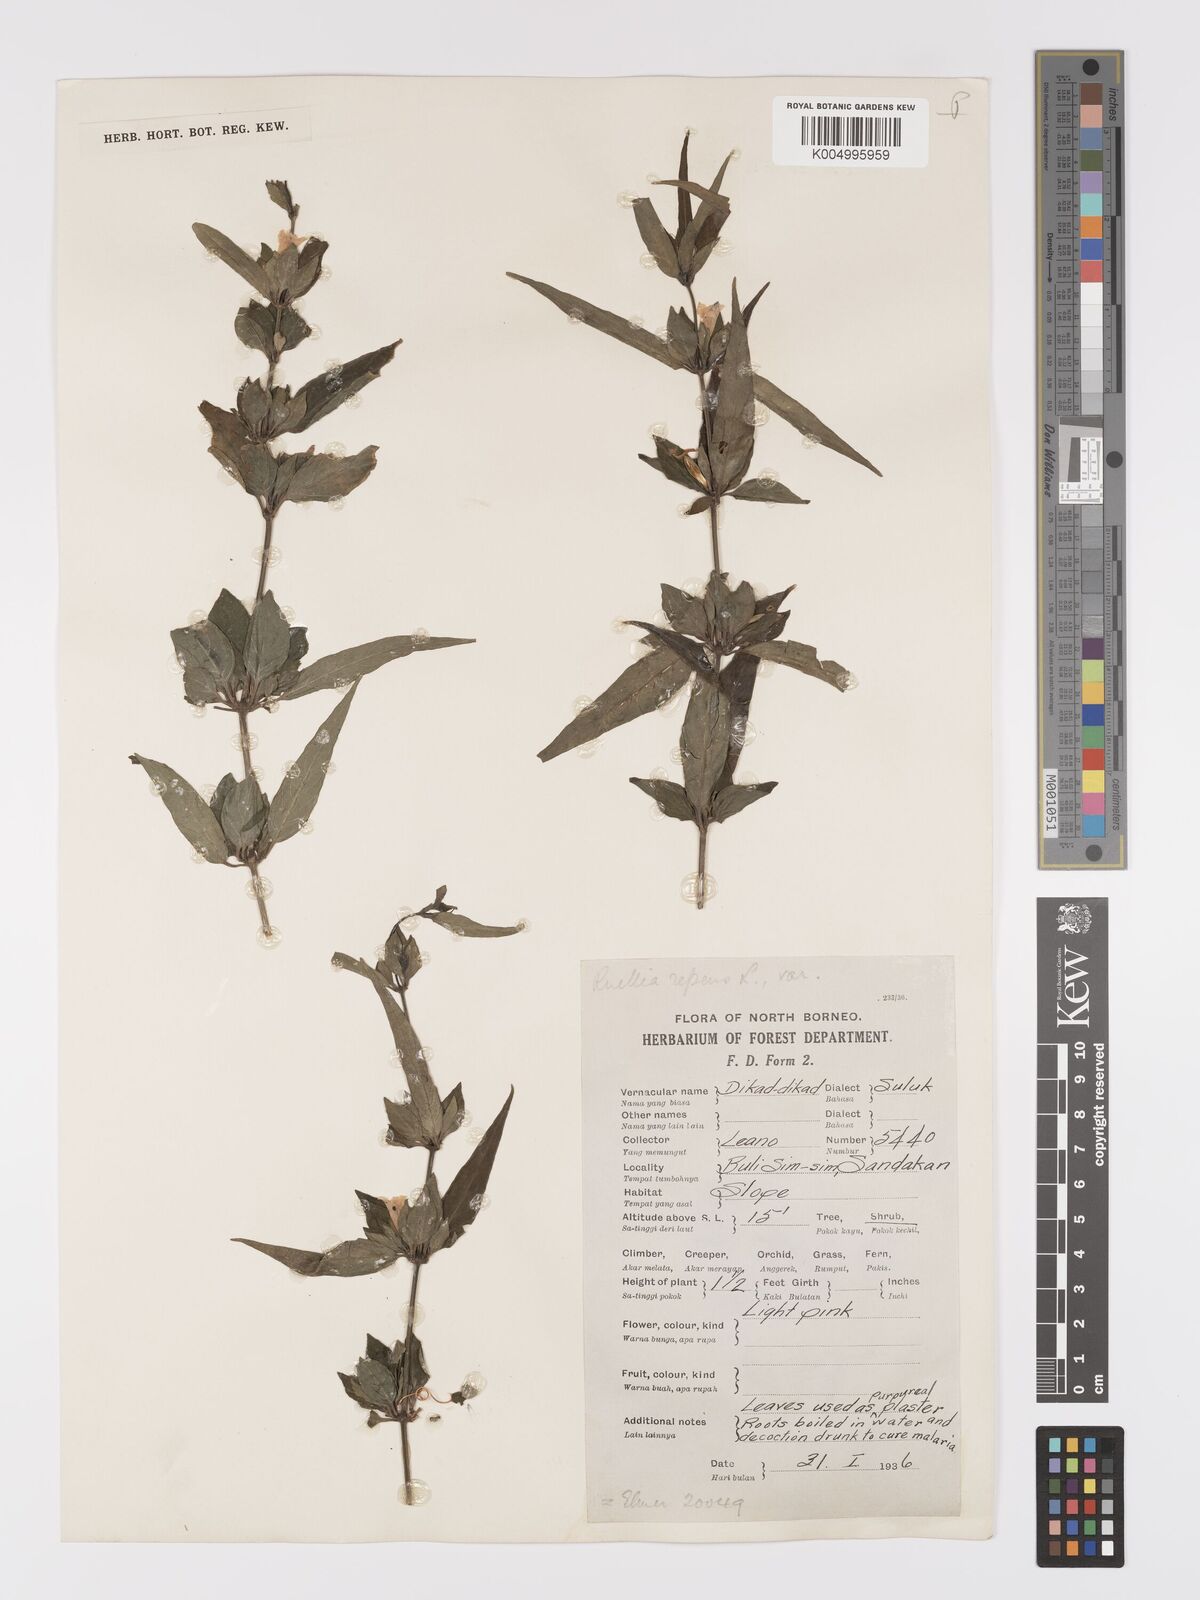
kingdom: Plantae
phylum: Tracheophyta
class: Magnoliopsida
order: Lamiales
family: Acanthaceae
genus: Ruellia
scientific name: Ruellia
